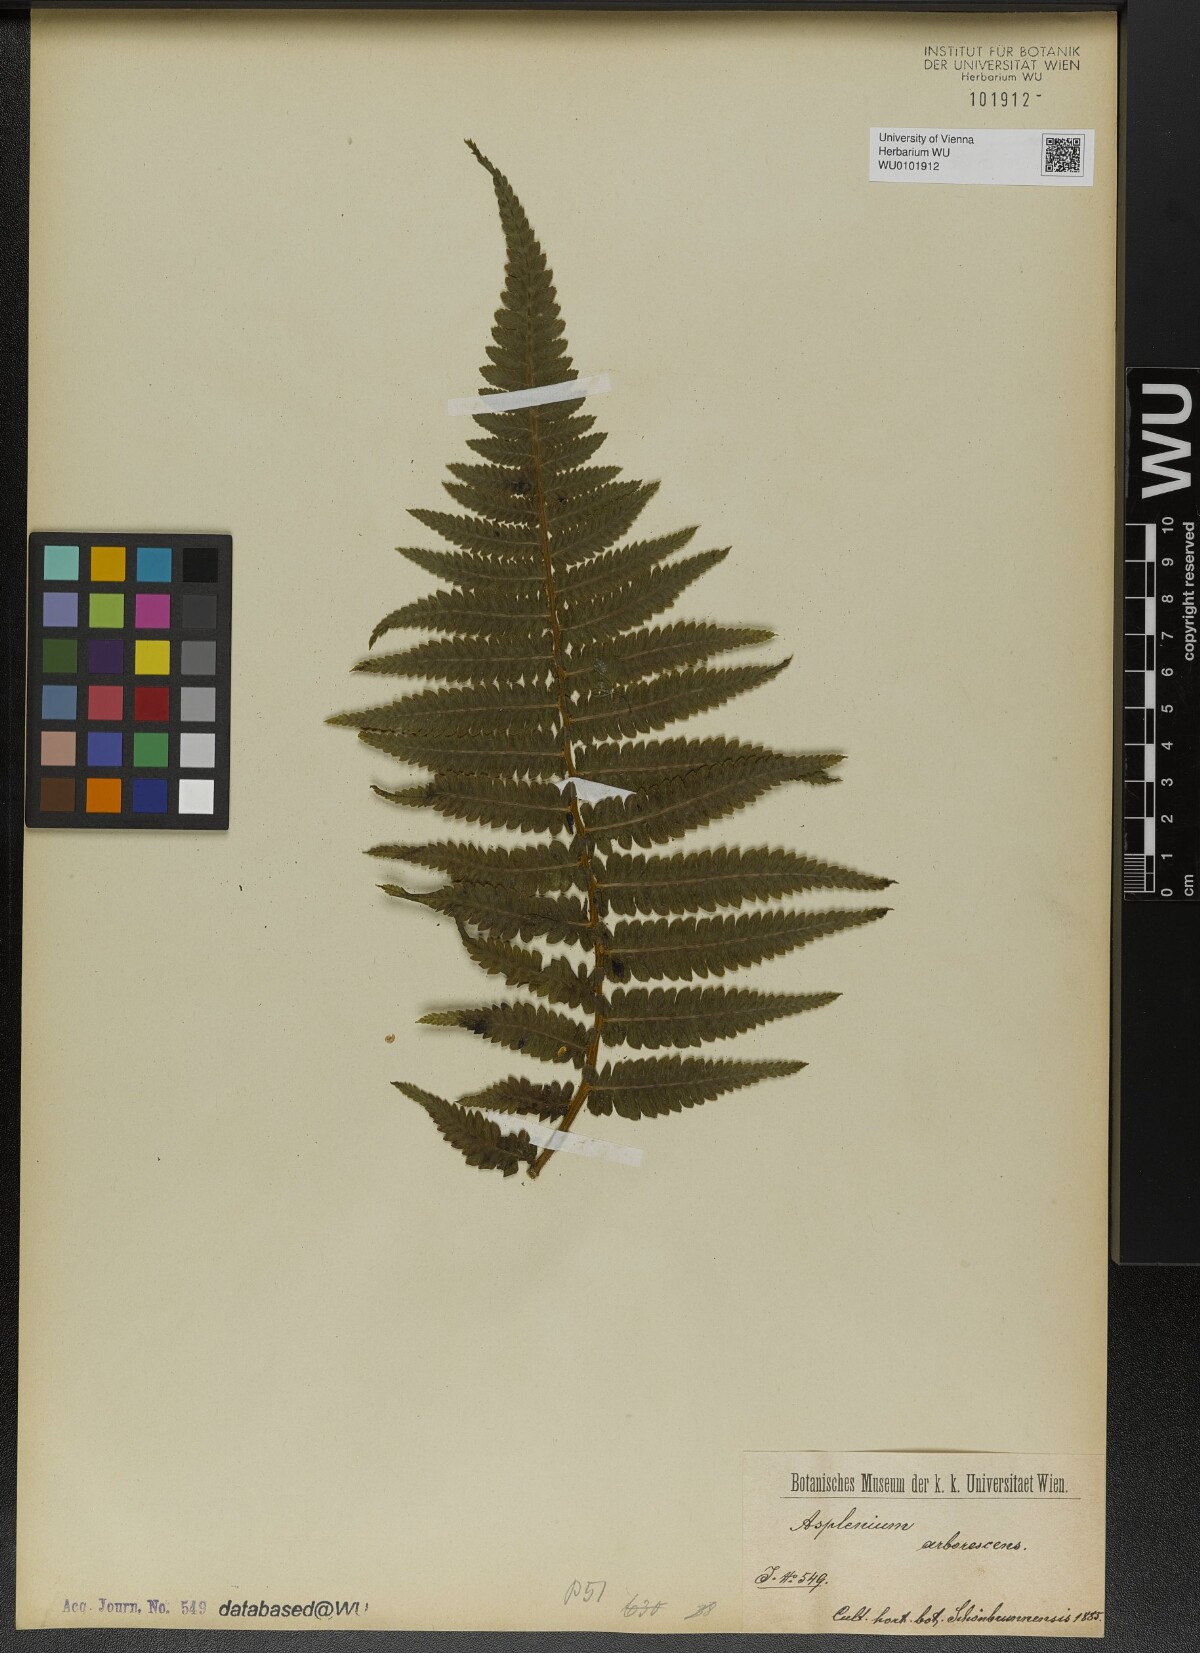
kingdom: Plantae
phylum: Tracheophyta
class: Polypodiopsida
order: Polypodiales
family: Athyriaceae
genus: Diplazium
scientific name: Diplazium arborescens
